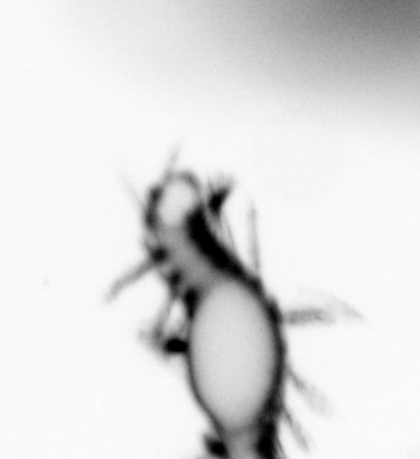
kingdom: Animalia
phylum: Annelida
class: Polychaeta
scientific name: Polychaeta
